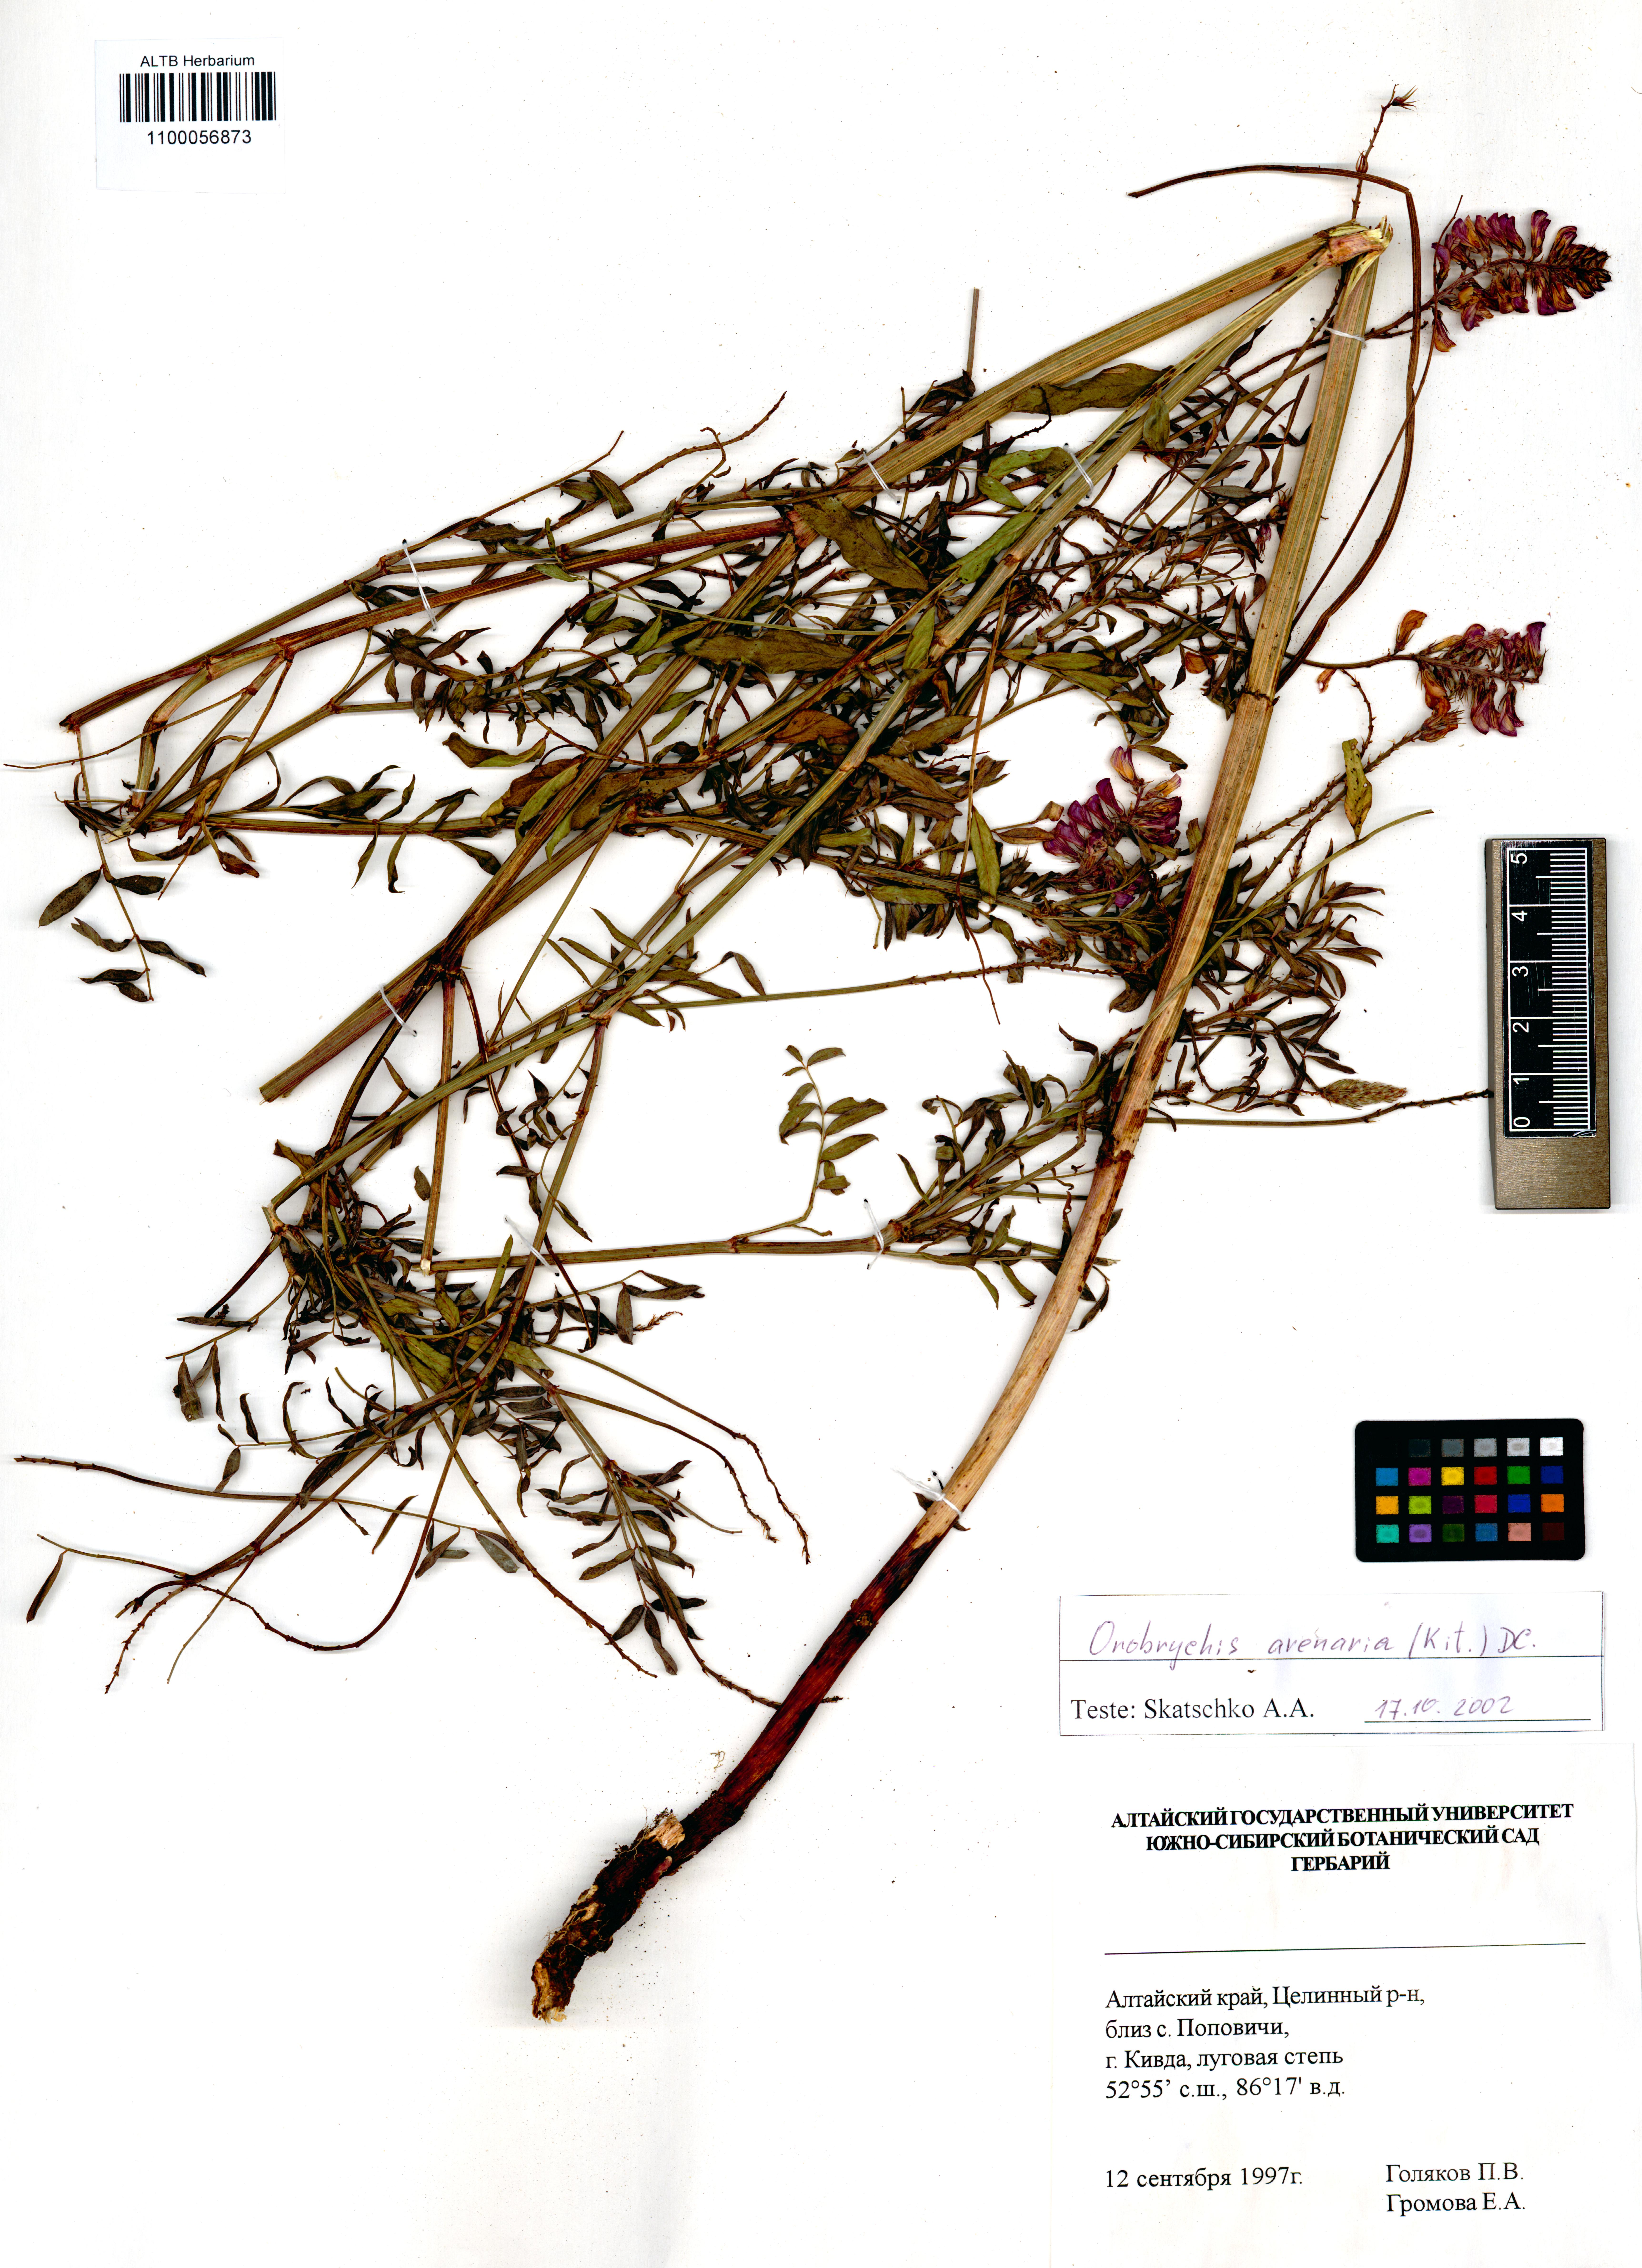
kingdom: Plantae
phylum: Tracheophyta
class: Magnoliopsida
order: Fabales
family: Fabaceae
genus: Onobrychis
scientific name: Onobrychis arenaria
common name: Sand esparcet
